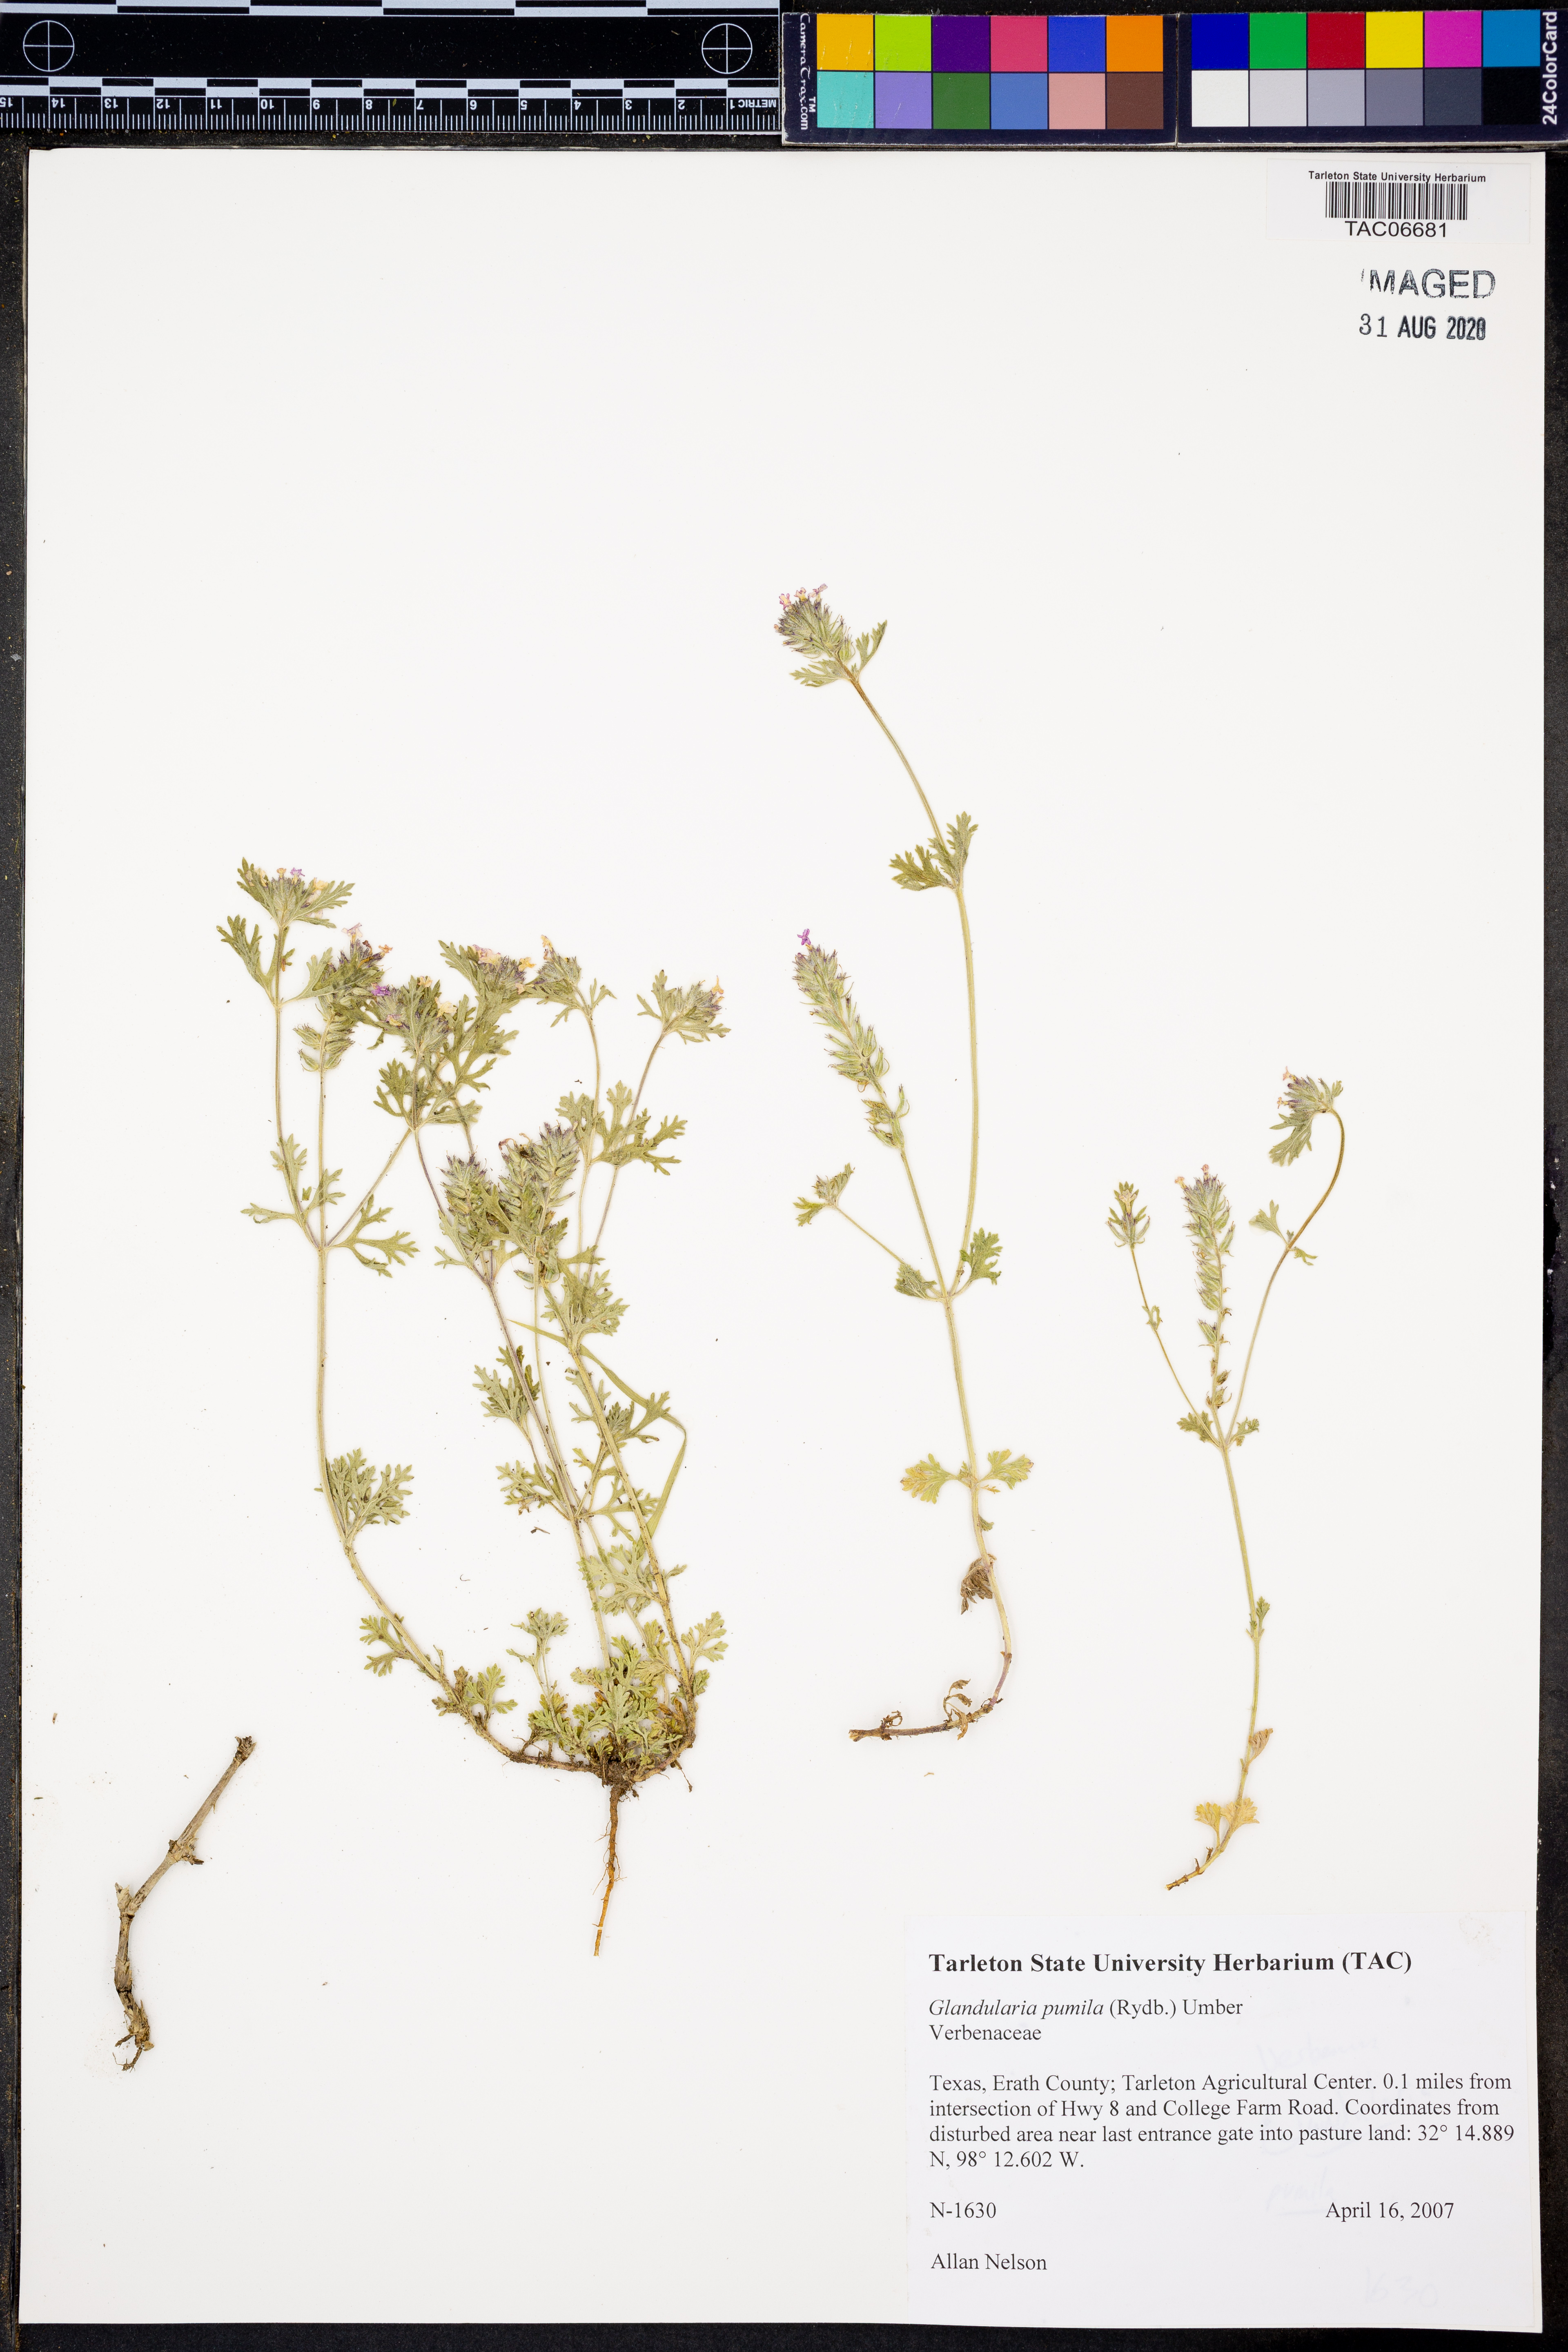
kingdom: Plantae
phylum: Tracheophyta
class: Magnoliopsida
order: Lamiales
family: Verbenaceae
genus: Verbena
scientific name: Verbena pumila
